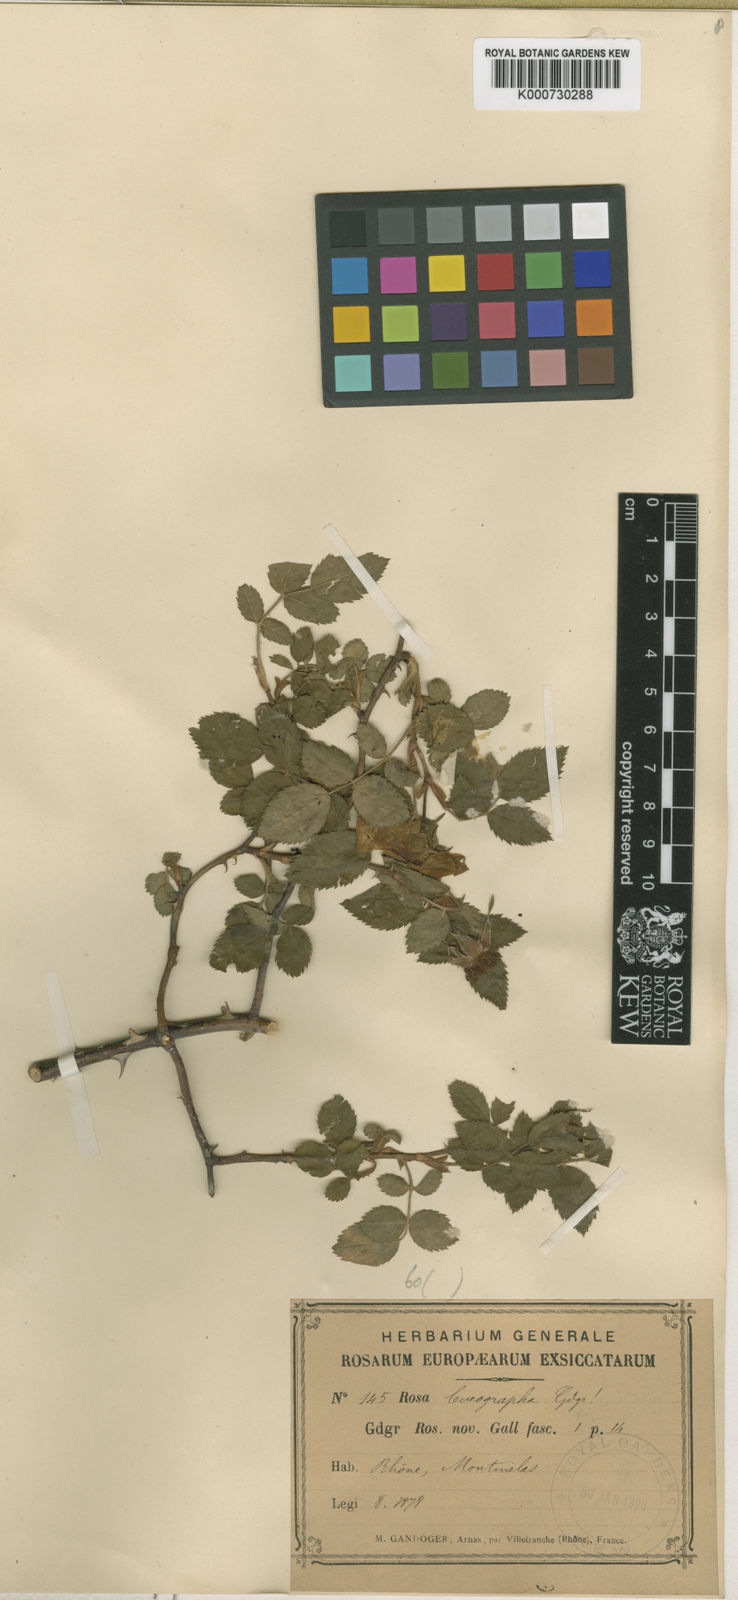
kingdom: Plantae
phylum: Tracheophyta
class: Magnoliopsida
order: Rosales
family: Rosaceae
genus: Rosa
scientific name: Rosa canina
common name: Dog rose
